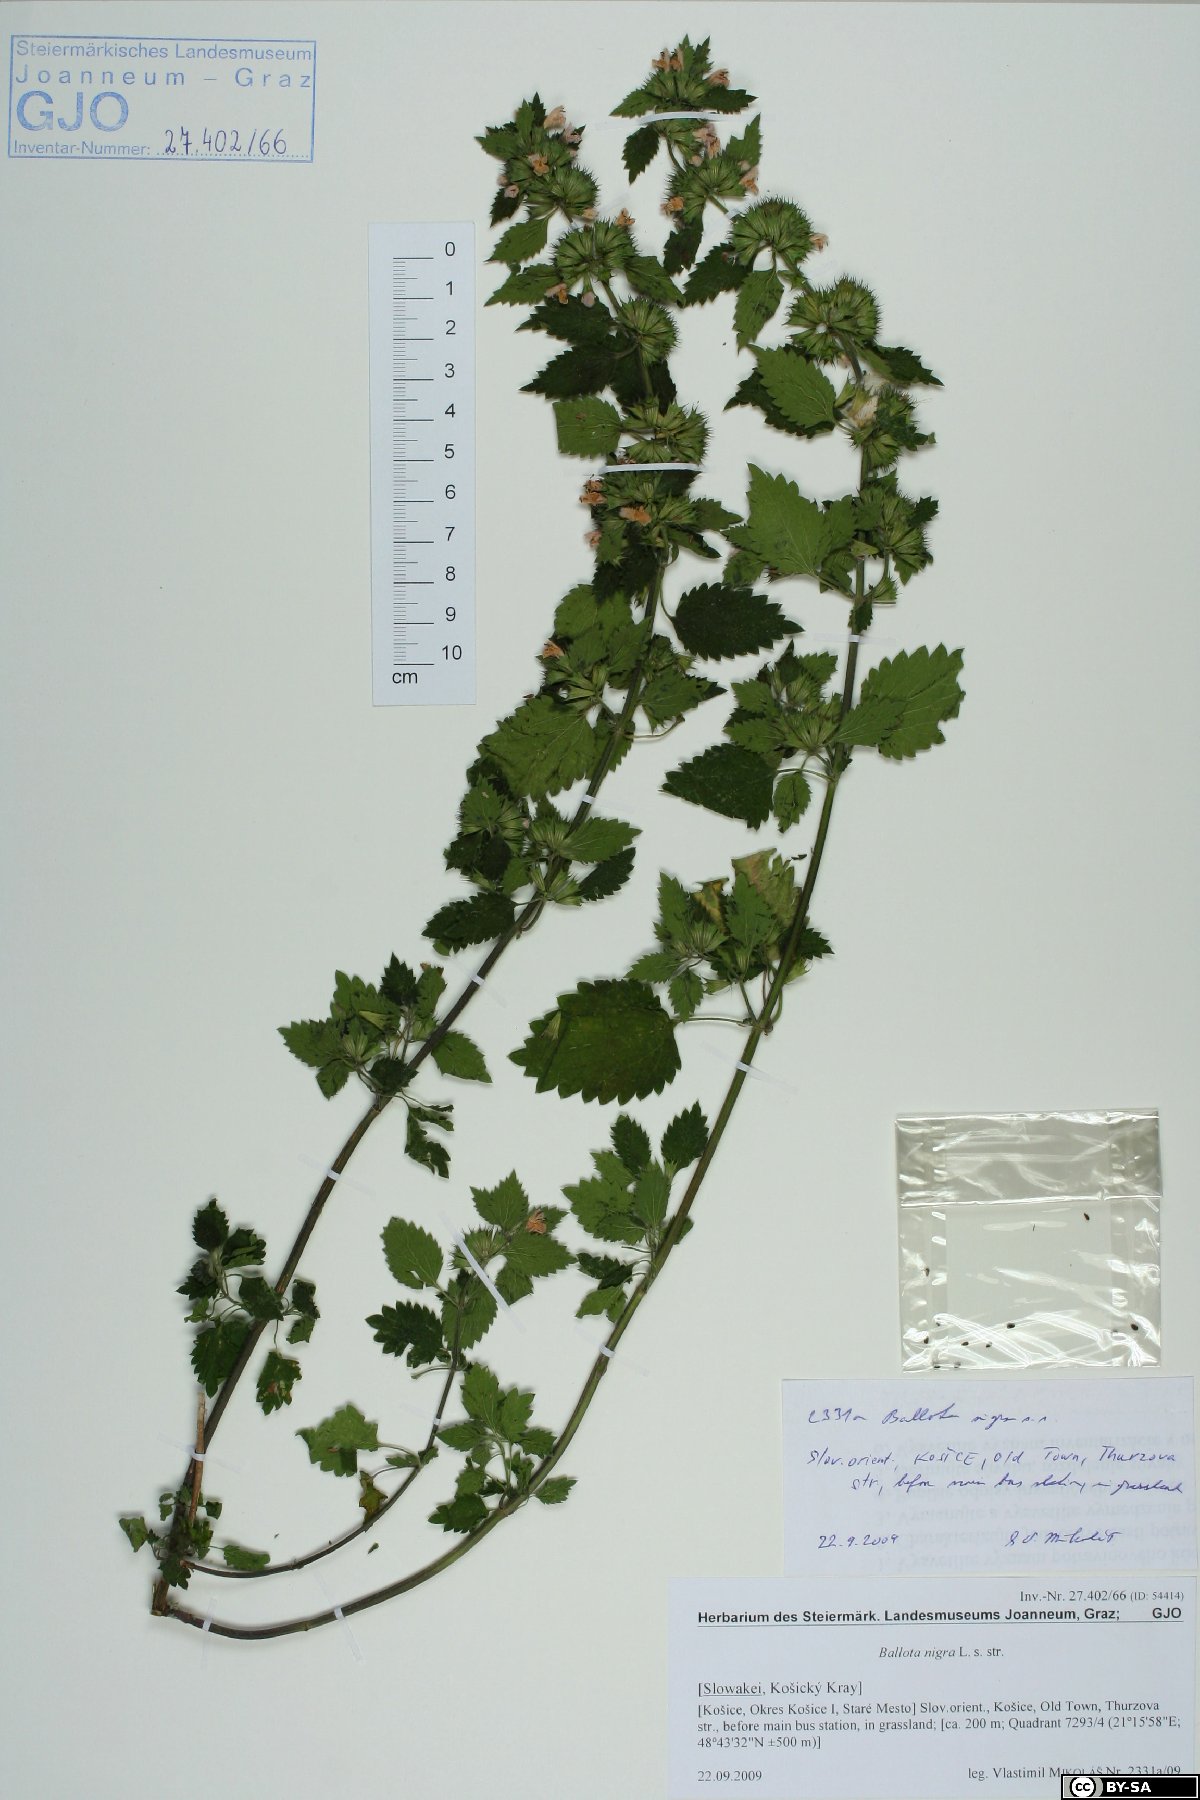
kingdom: Plantae
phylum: Tracheophyta
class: Magnoliopsida
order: Lamiales
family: Lamiaceae
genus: Ballota
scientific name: Ballota nigra
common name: Black horehound
